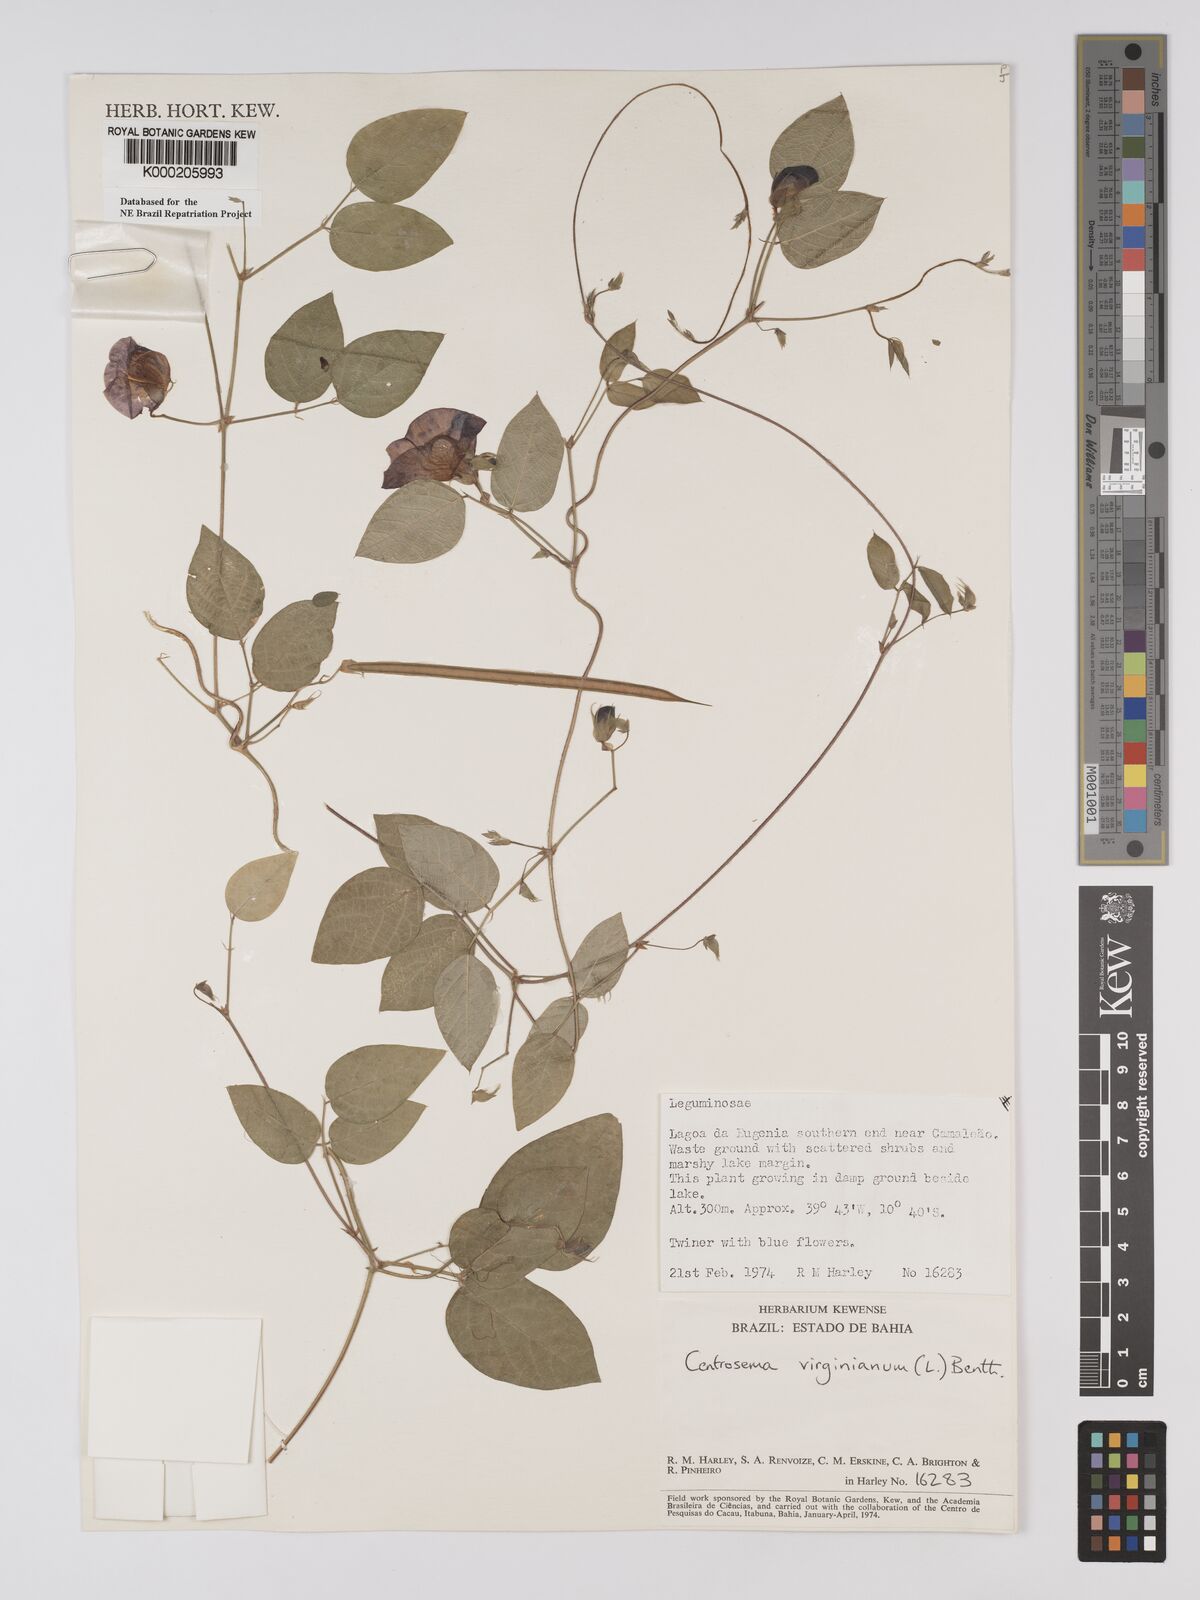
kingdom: Plantae
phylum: Tracheophyta
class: Magnoliopsida
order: Fabales
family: Fabaceae
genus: Centrosema
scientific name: Centrosema virginianum
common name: Butterfly-pea
